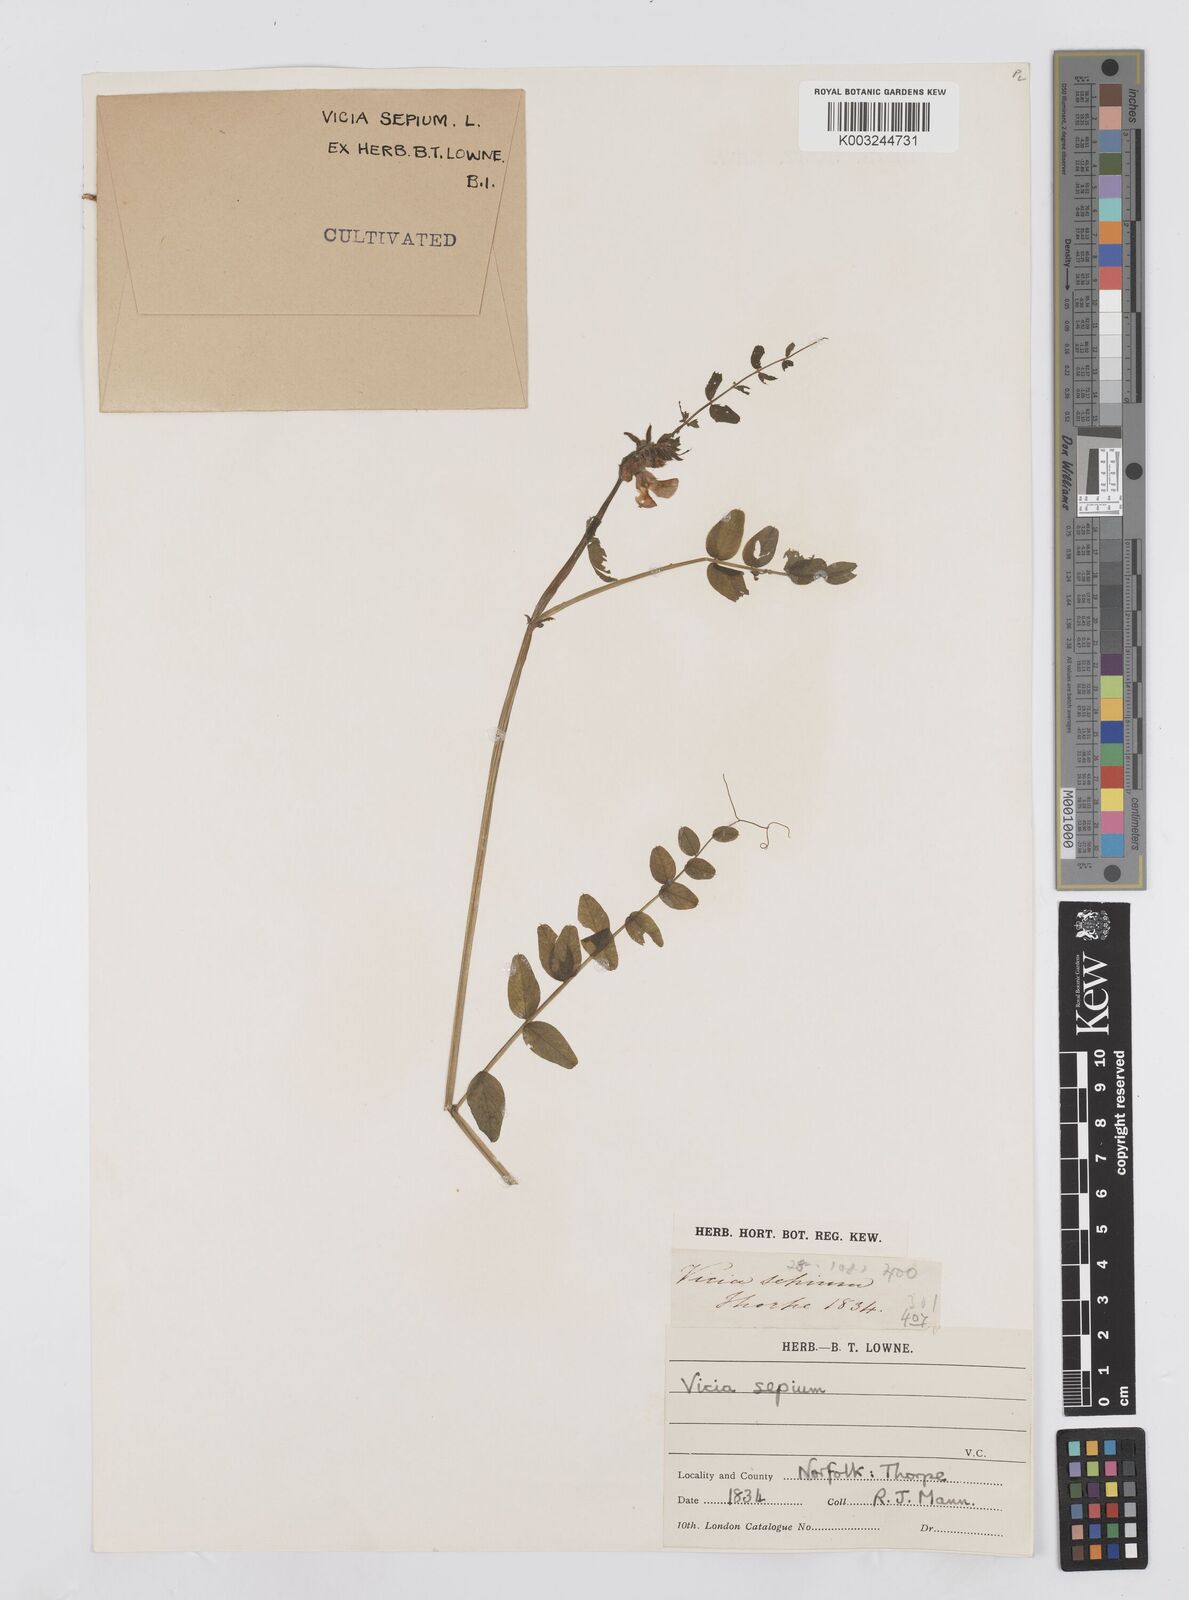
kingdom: Plantae
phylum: Tracheophyta
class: Magnoliopsida
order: Fabales
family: Fabaceae
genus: Vicia
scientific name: Vicia sepium
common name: Bush vetch
